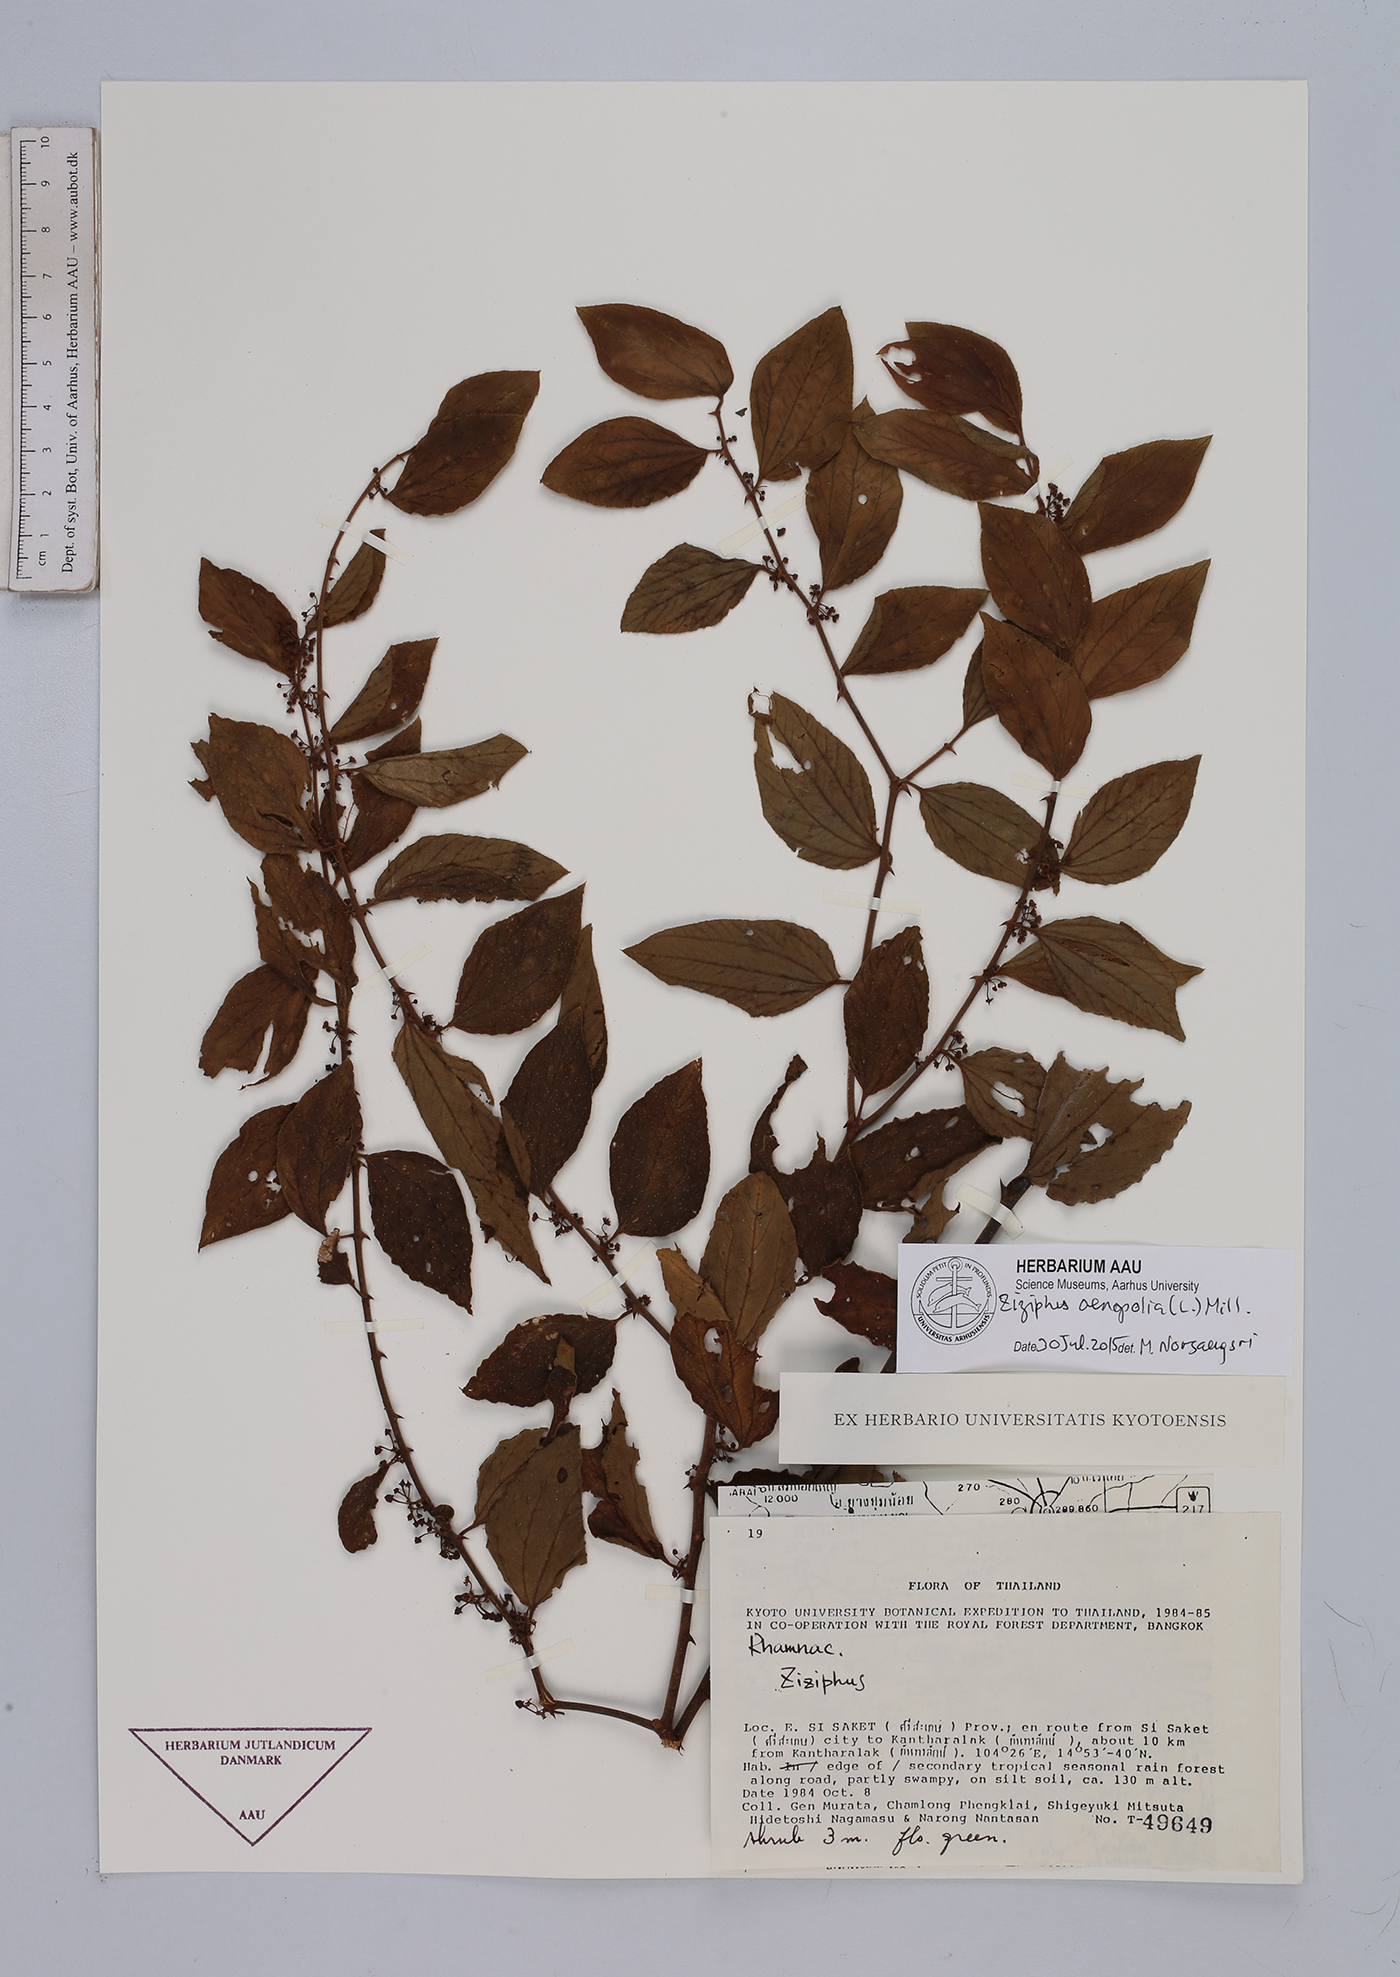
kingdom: Plantae
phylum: Tracheophyta
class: Magnoliopsida
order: Rosales
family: Rhamnaceae
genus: Ziziphus
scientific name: Ziziphus oenopolia
